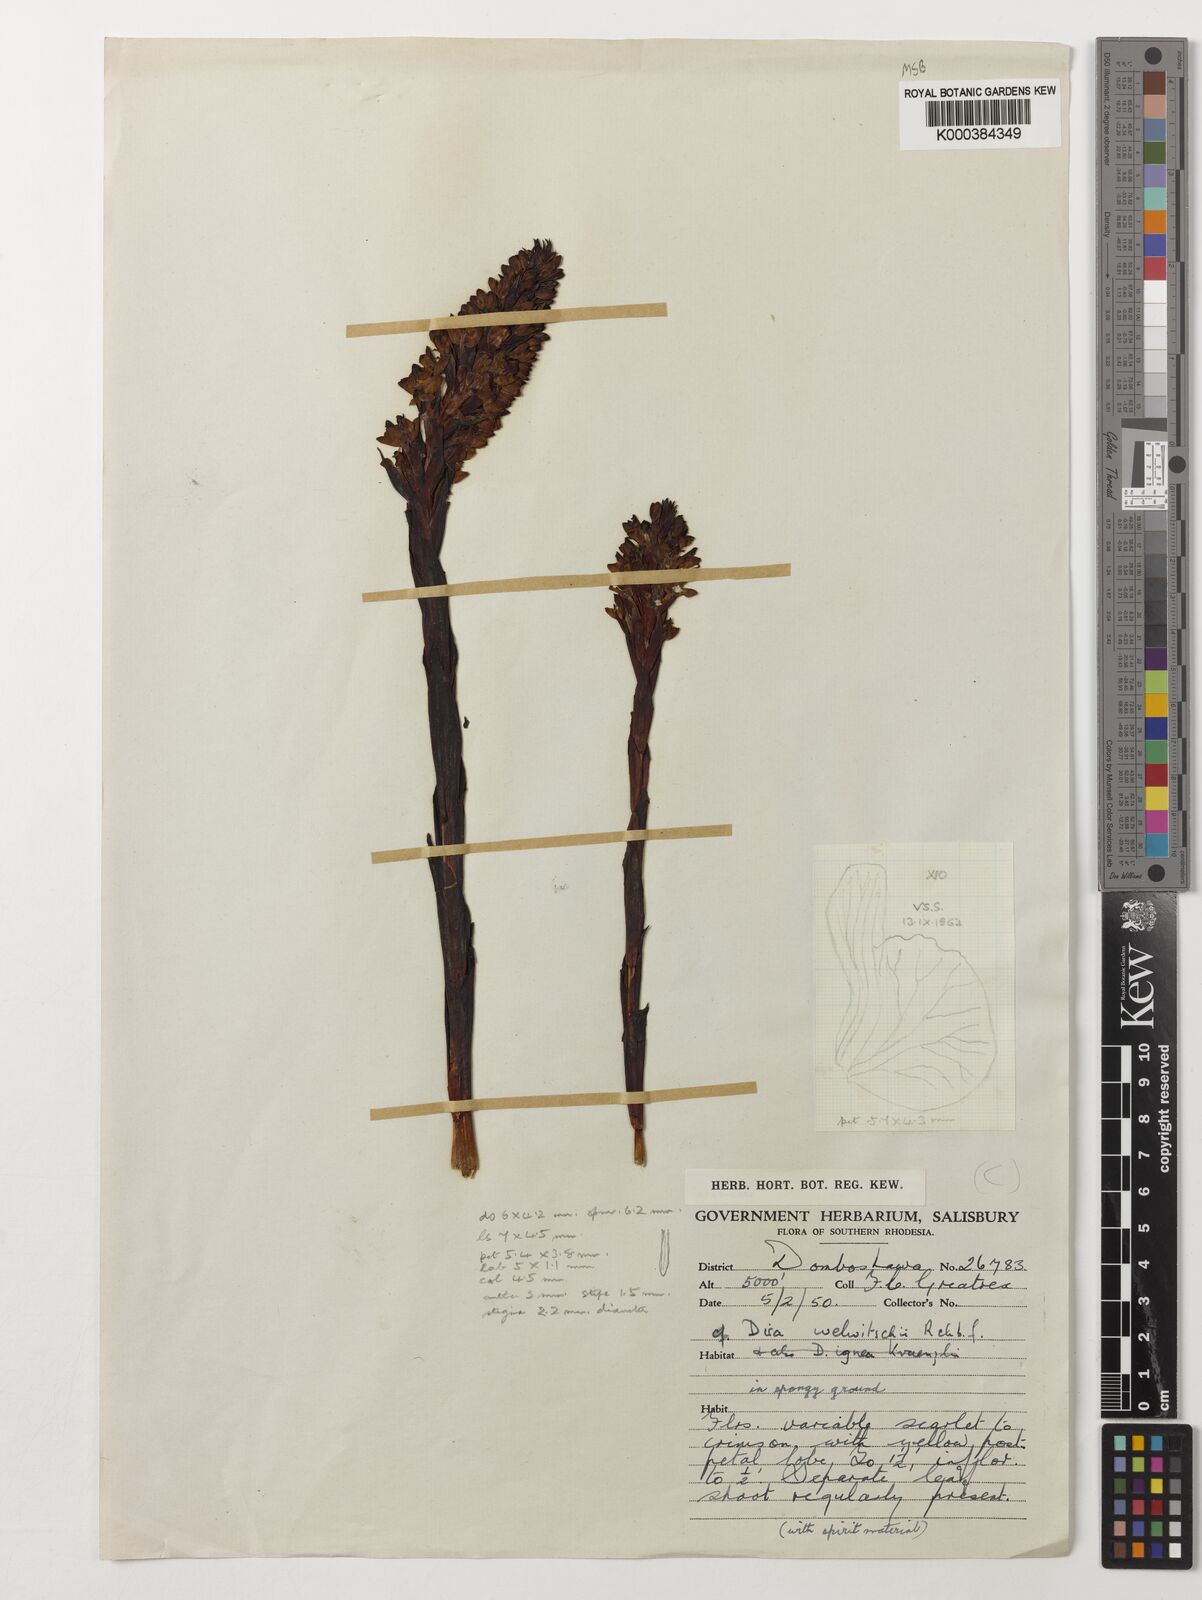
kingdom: Plantae
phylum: Tracheophyta
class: Liliopsida
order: Asparagales
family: Orchidaceae
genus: Disa
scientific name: Disa welwitschii
